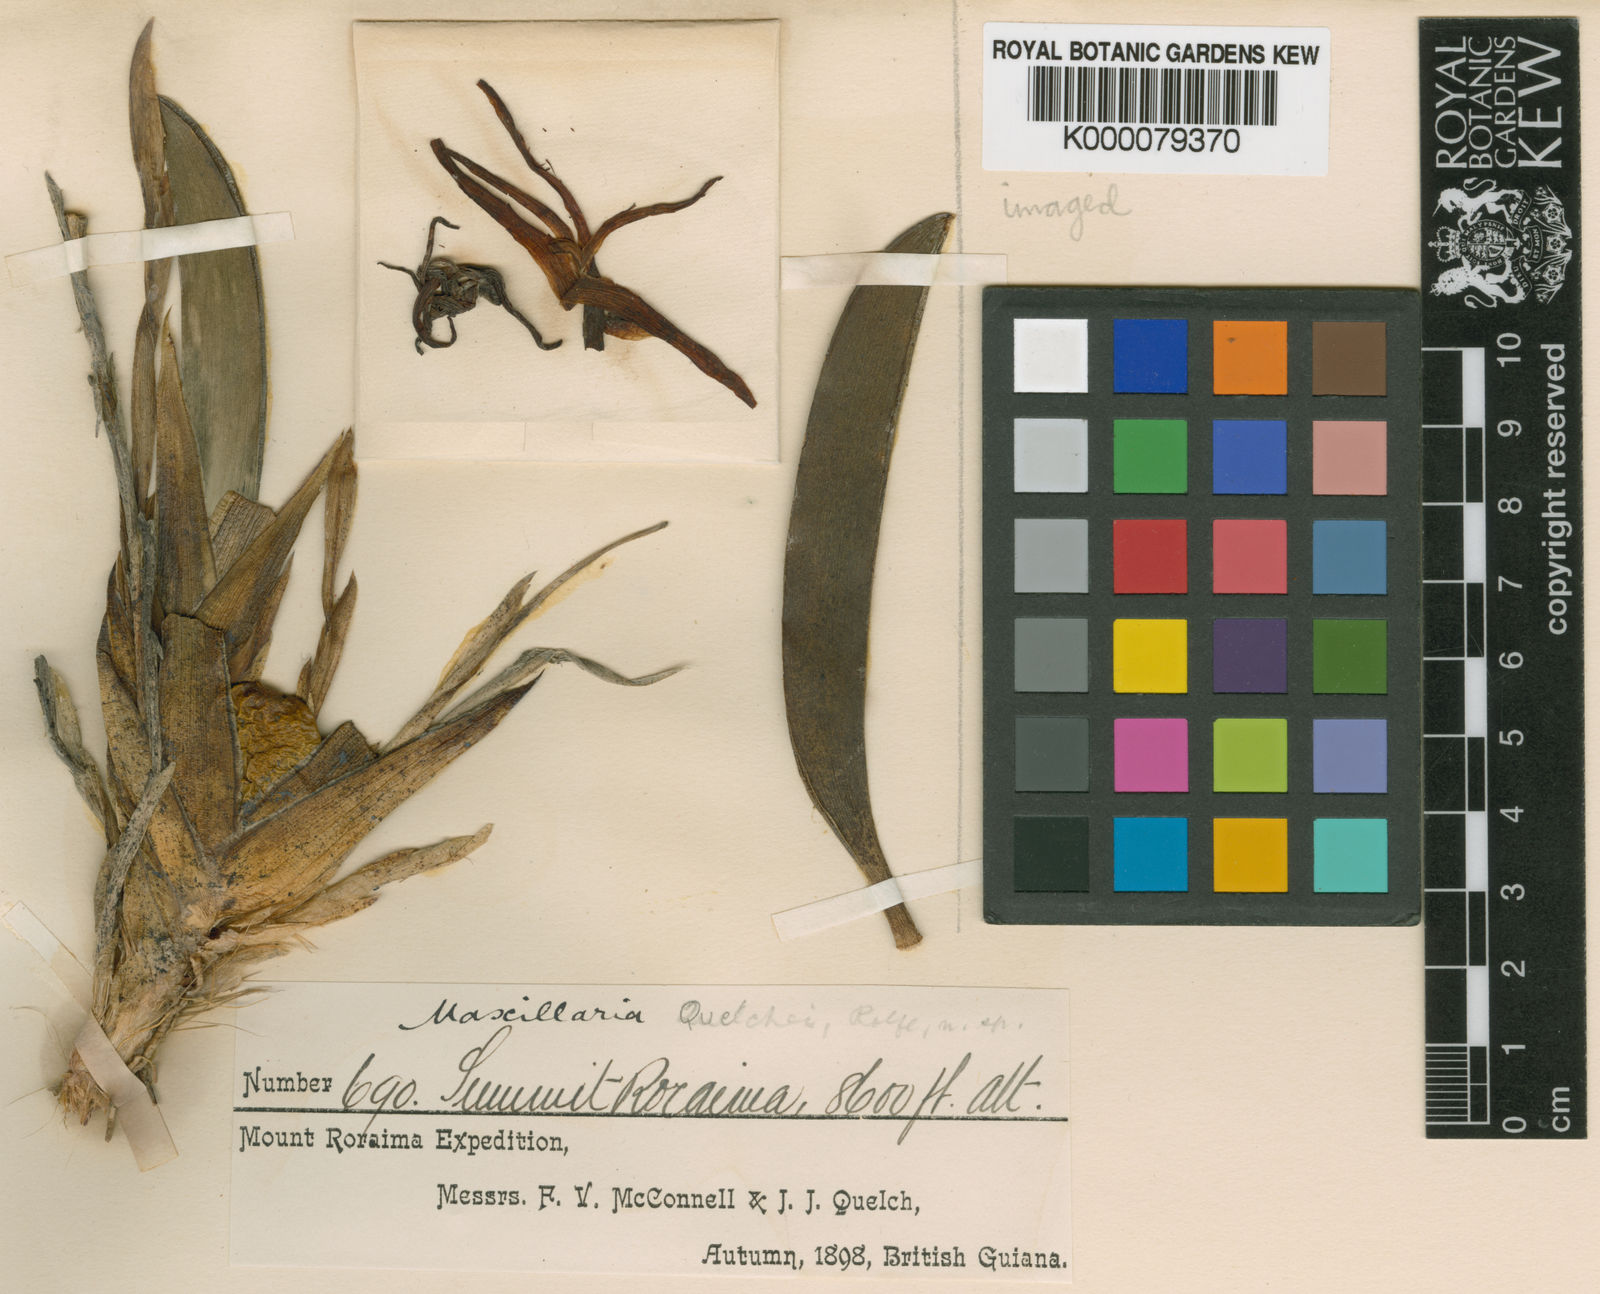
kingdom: Plantae
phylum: Tracheophyta
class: Liliopsida
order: Asparagales
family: Orchidaceae
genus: Maxillaria
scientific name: Maxillaria quelchii
